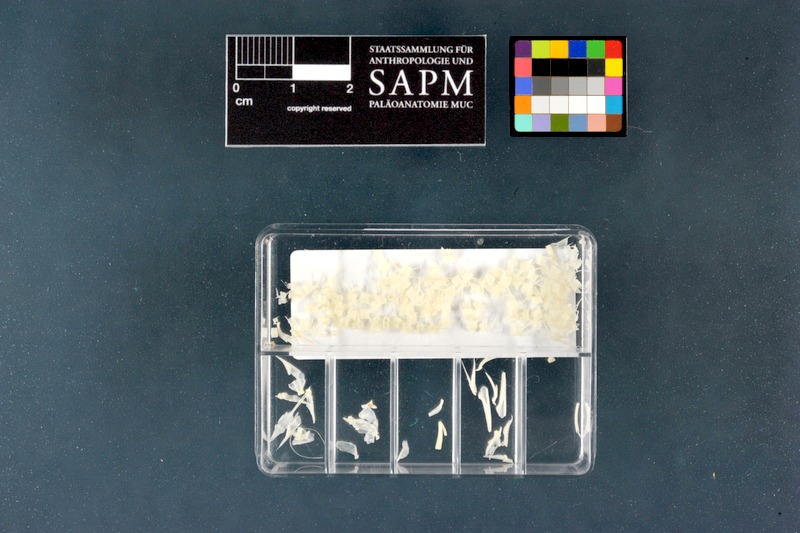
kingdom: Animalia
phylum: Chordata
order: Anguilliformes
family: Anguillidae
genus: Anguilla
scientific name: Anguilla anguilla
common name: European eel
